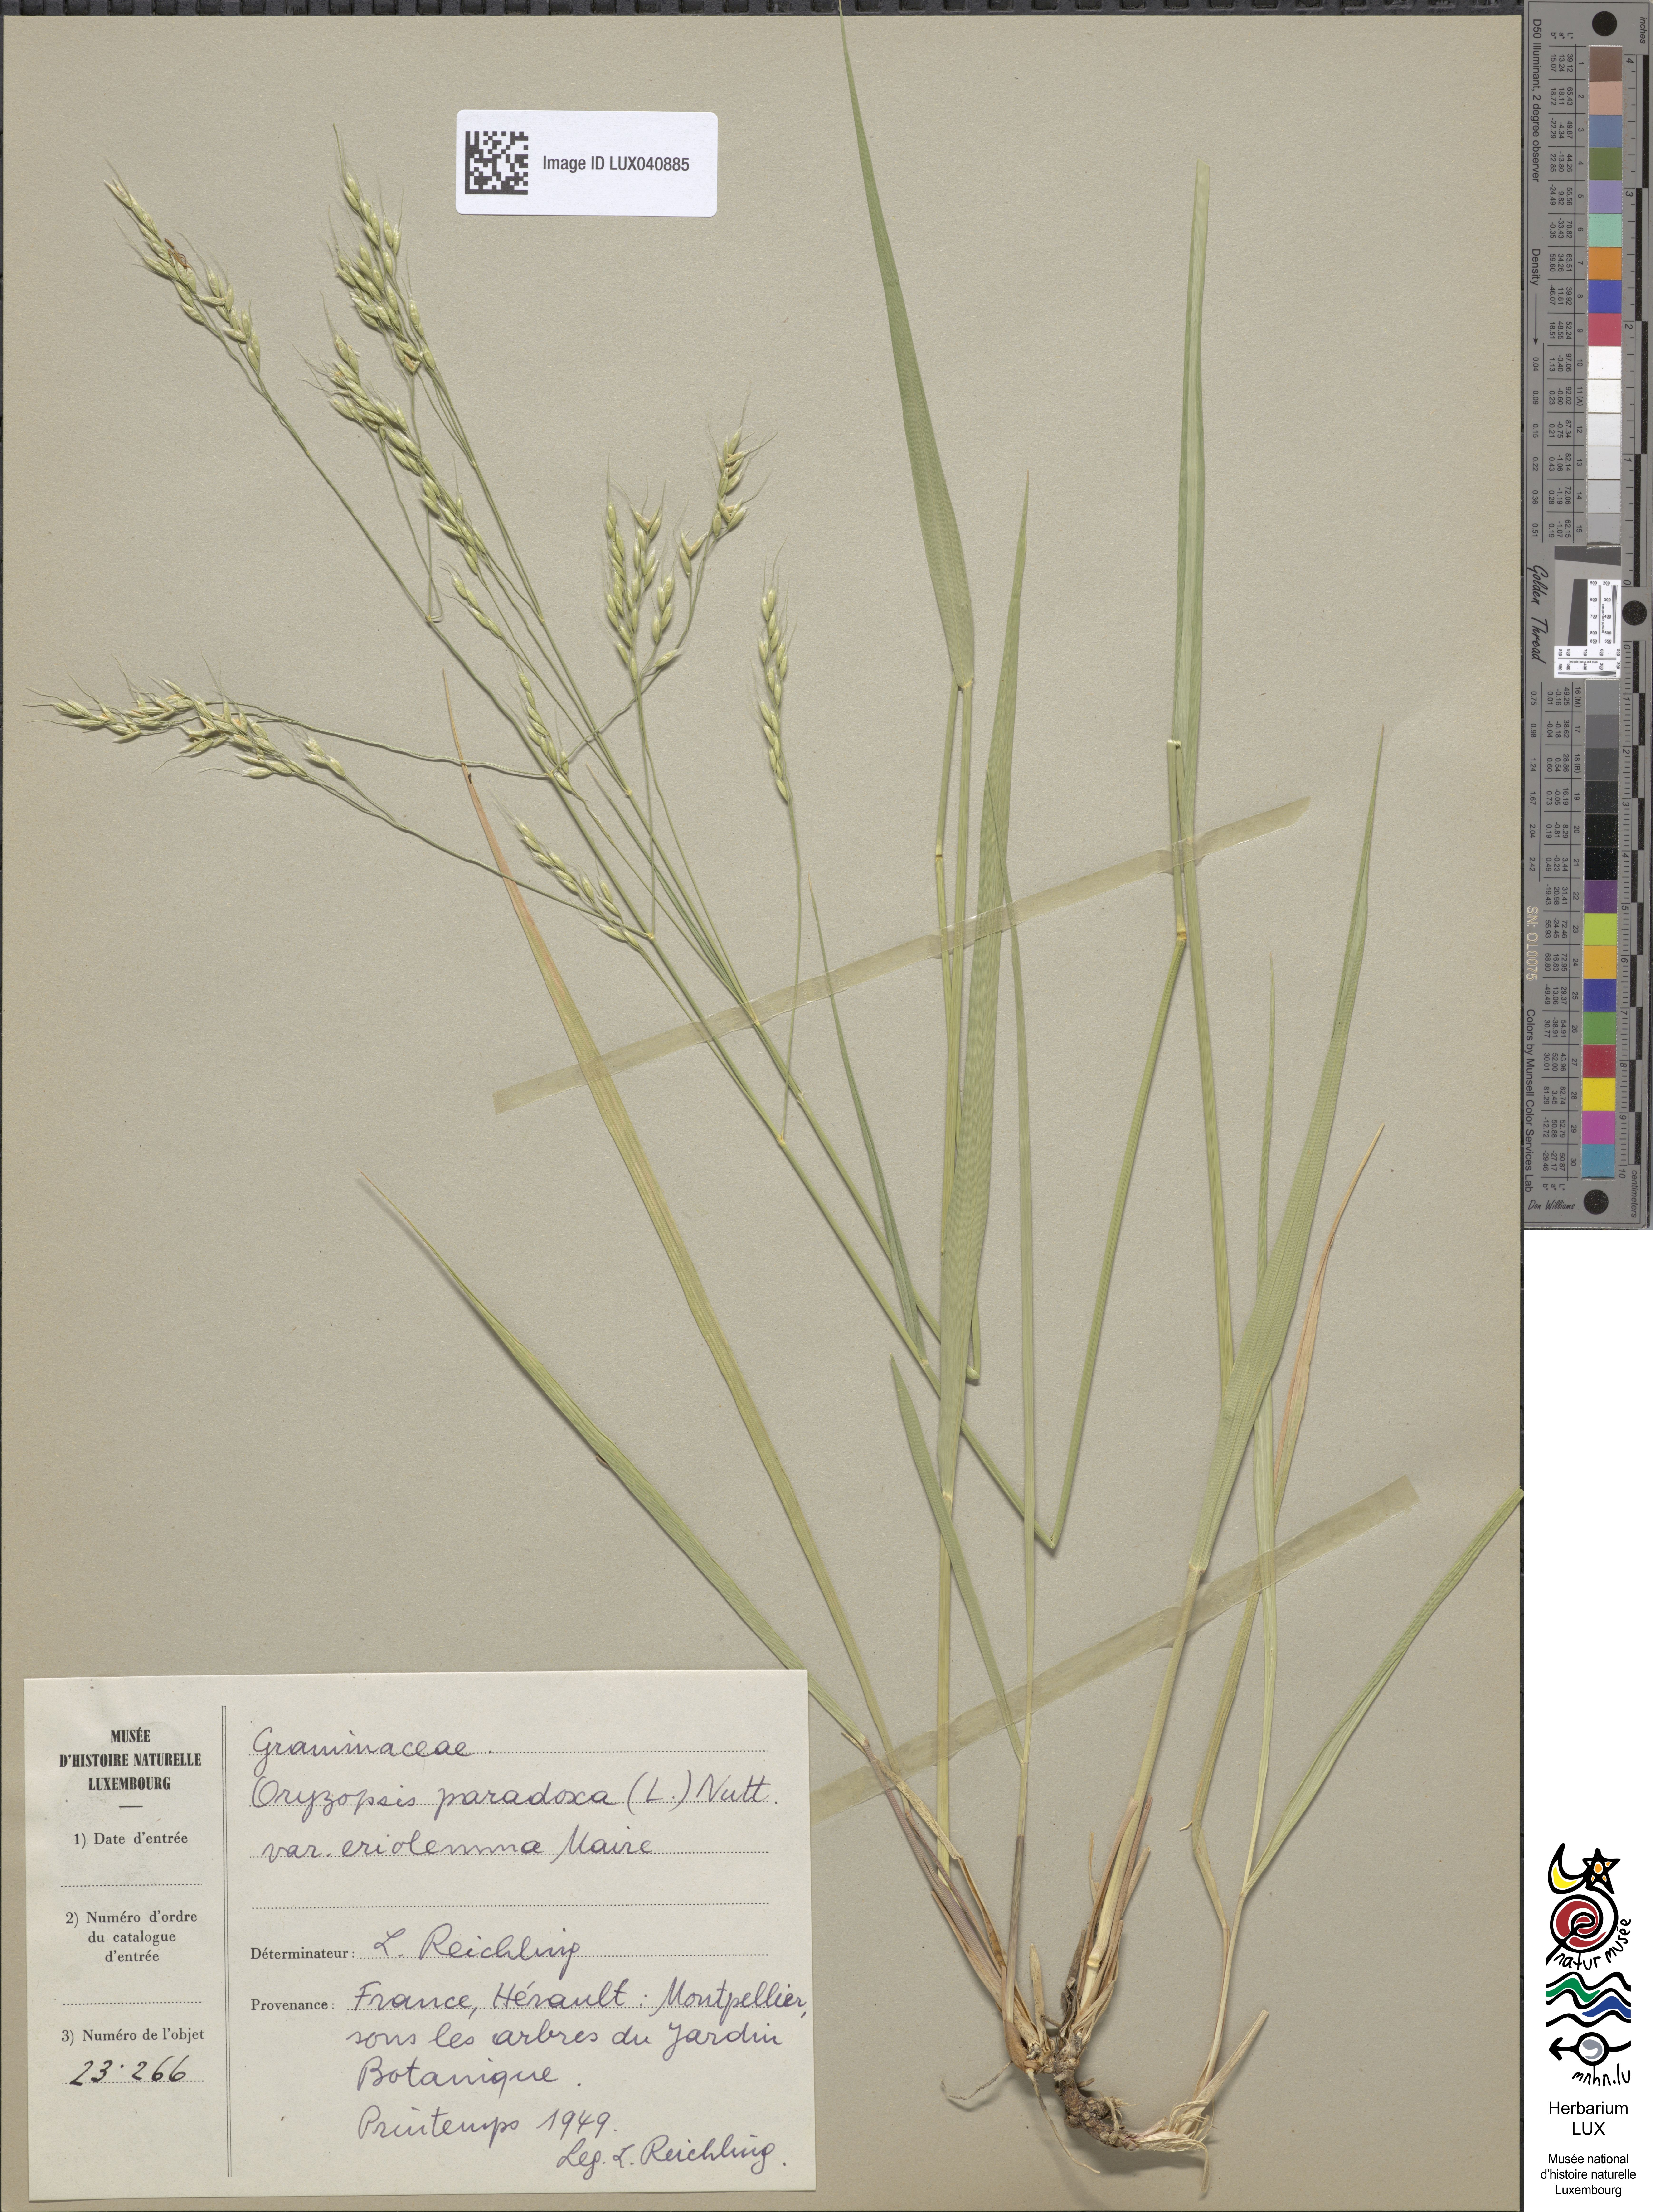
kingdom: Plantae
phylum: Tracheophyta
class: Liliopsida
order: Poales
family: Poaceae
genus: Achnatherum
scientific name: Achnatherum paradoxum
